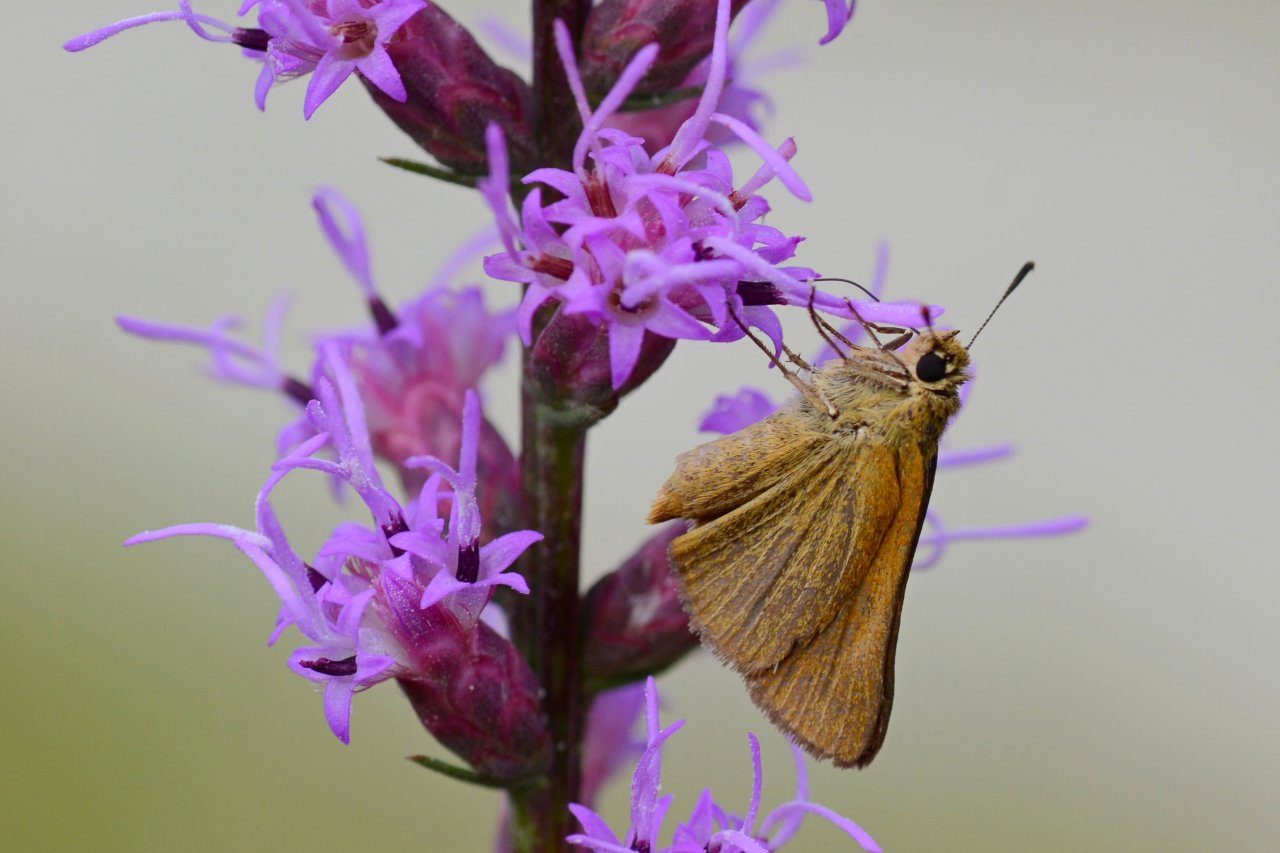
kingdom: Animalia
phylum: Arthropoda
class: Insecta
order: Lepidoptera
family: Hesperiidae
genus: Atrytone
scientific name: Atrytone arogos
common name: Arogos Skipper
